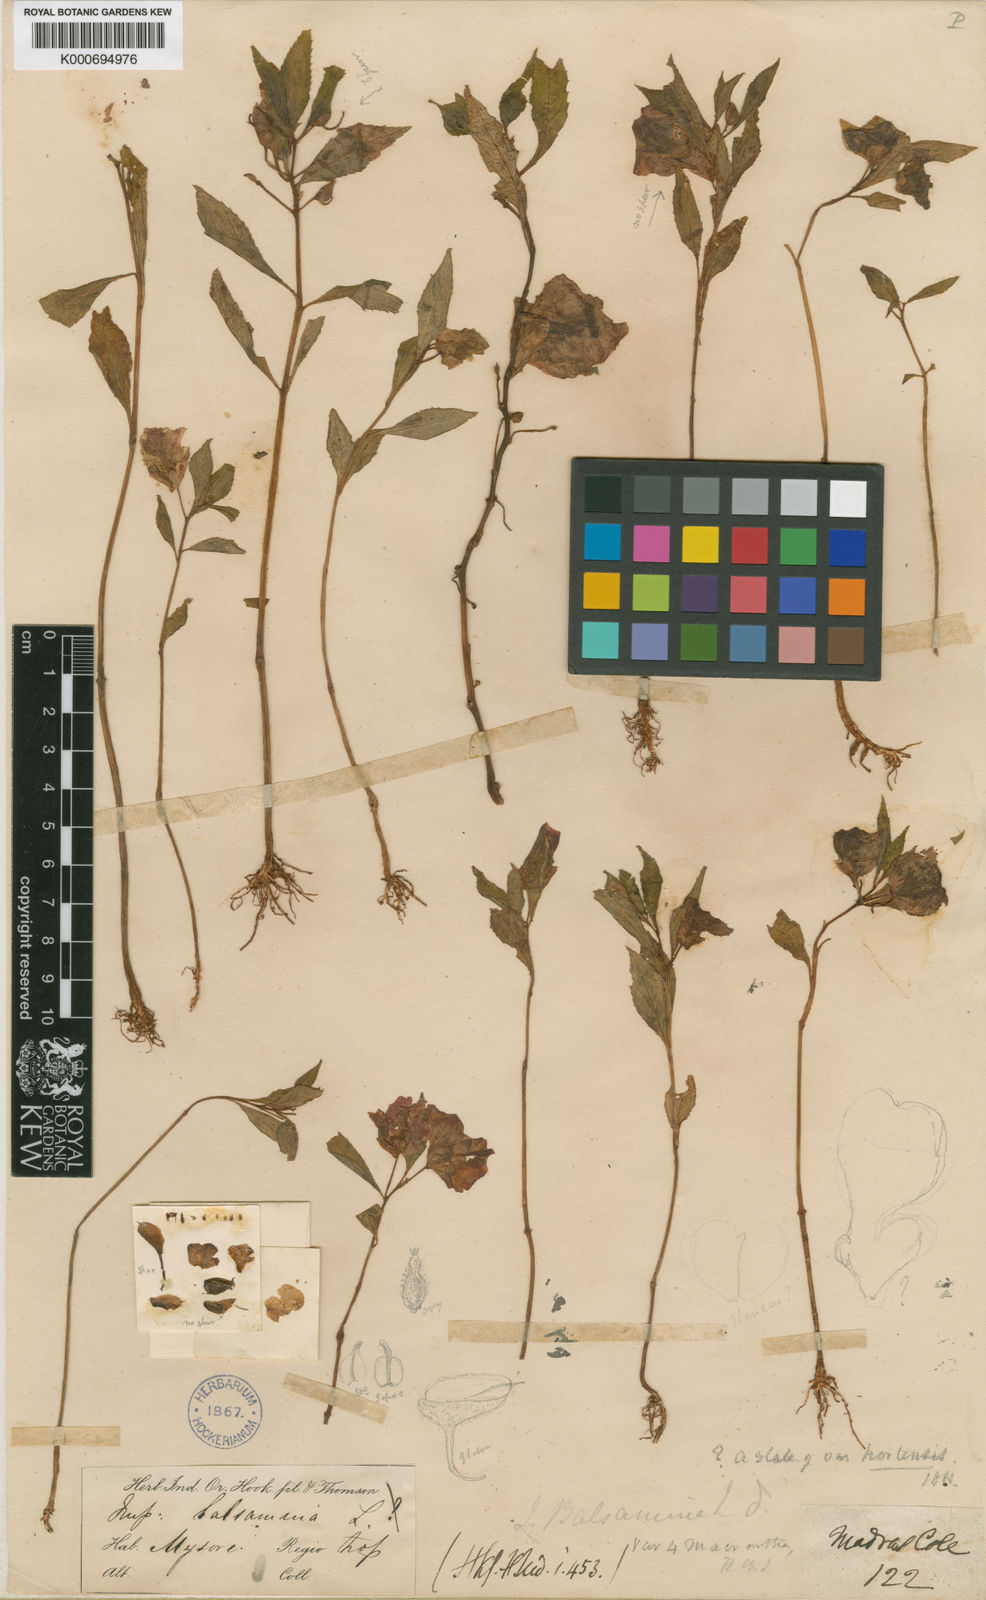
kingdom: Plantae
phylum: Tracheophyta
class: Magnoliopsida
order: Ericales
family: Balsaminaceae
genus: Impatiens
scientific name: Impatiens balsamina
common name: Balsam
